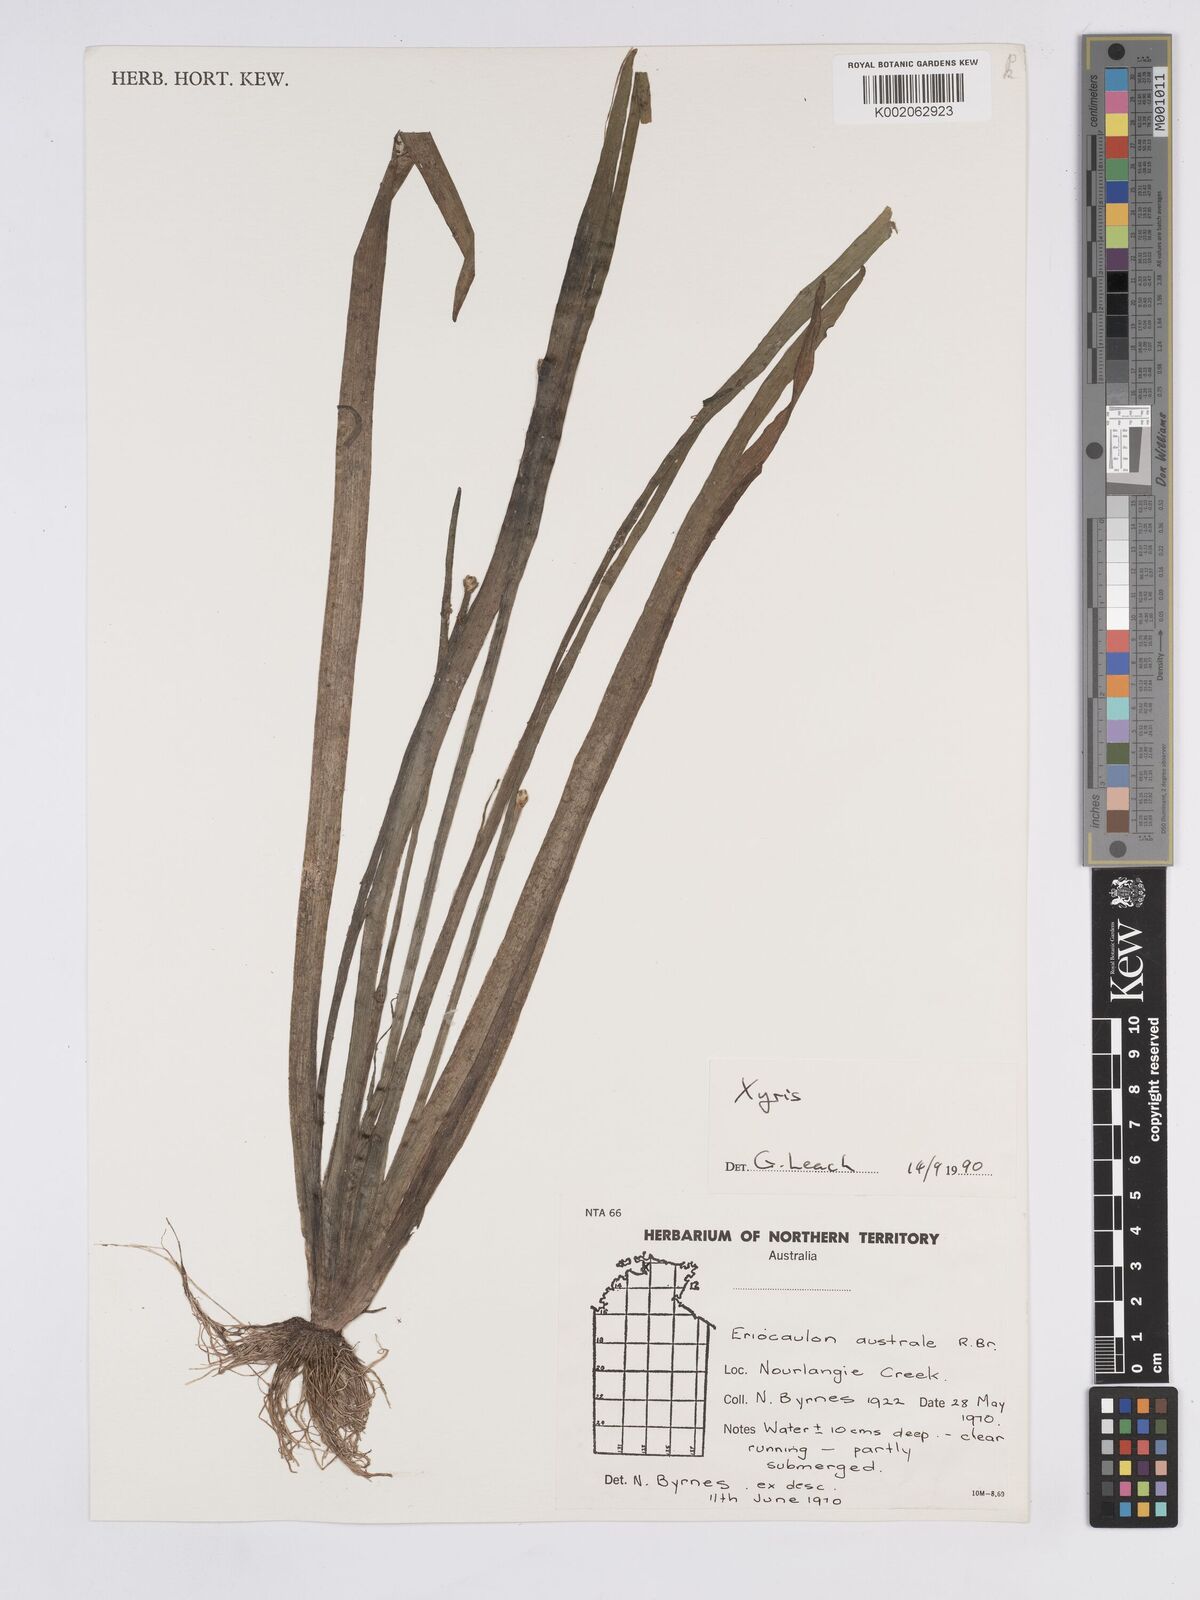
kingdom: Plantae
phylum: Tracheophyta
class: Liliopsida
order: Poales
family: Xyridaceae
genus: Xyris
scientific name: Xyris indica
